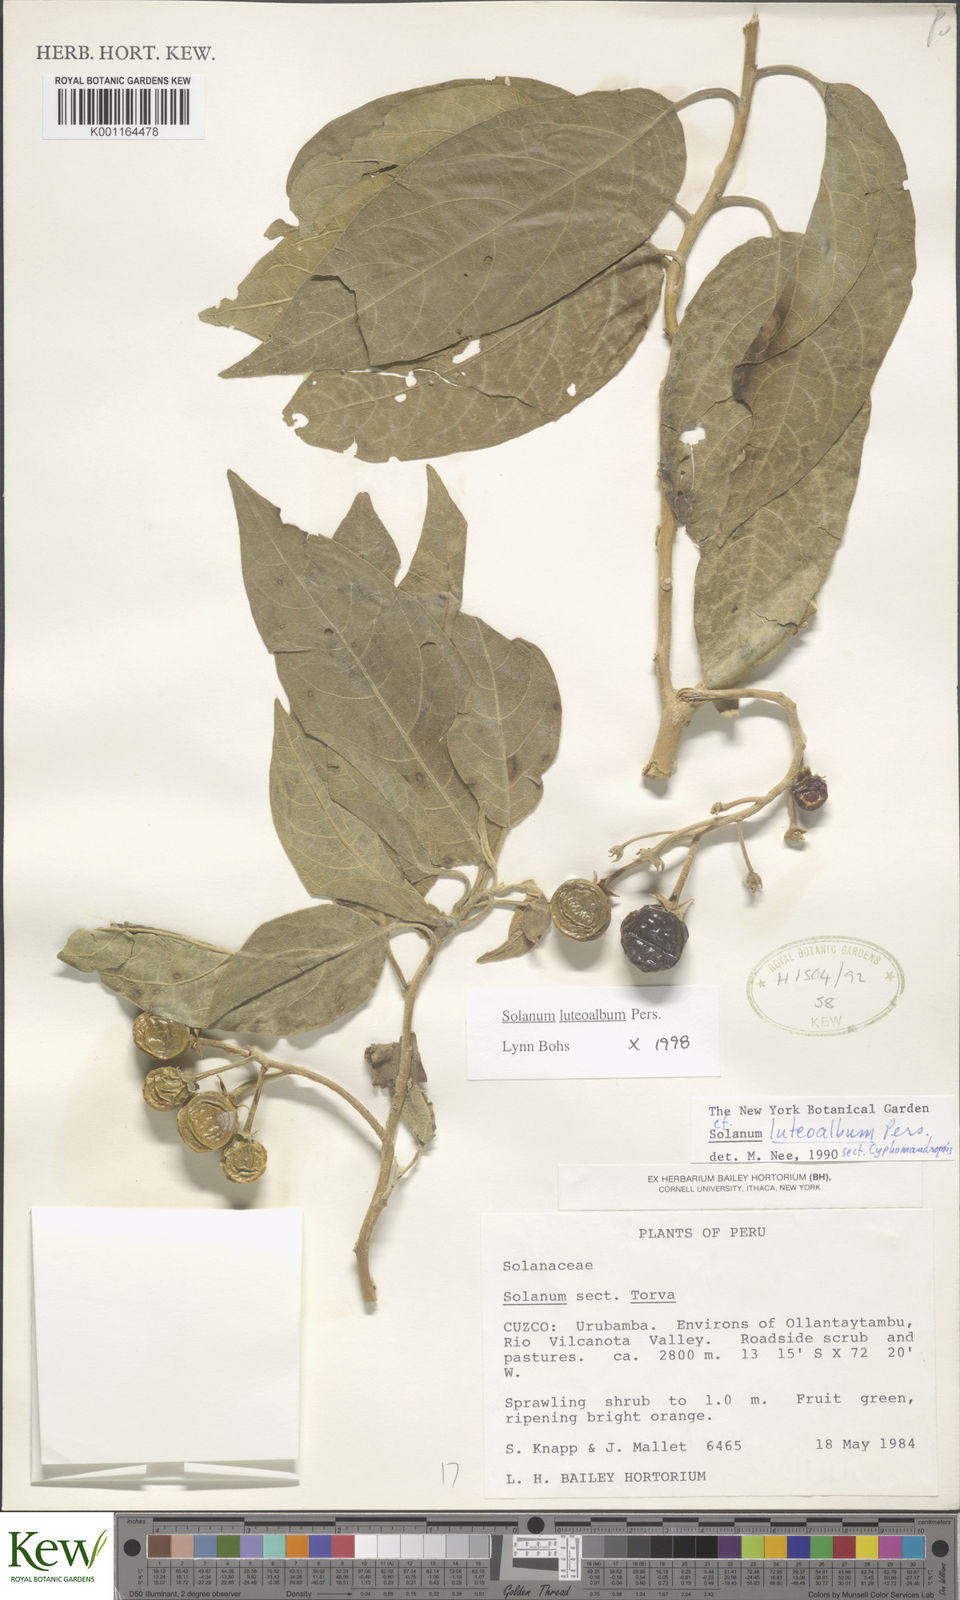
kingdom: Plantae
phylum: Tracheophyta
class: Magnoliopsida
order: Solanales
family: Solanaceae
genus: Solanum
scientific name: Solanum luteoalbum
